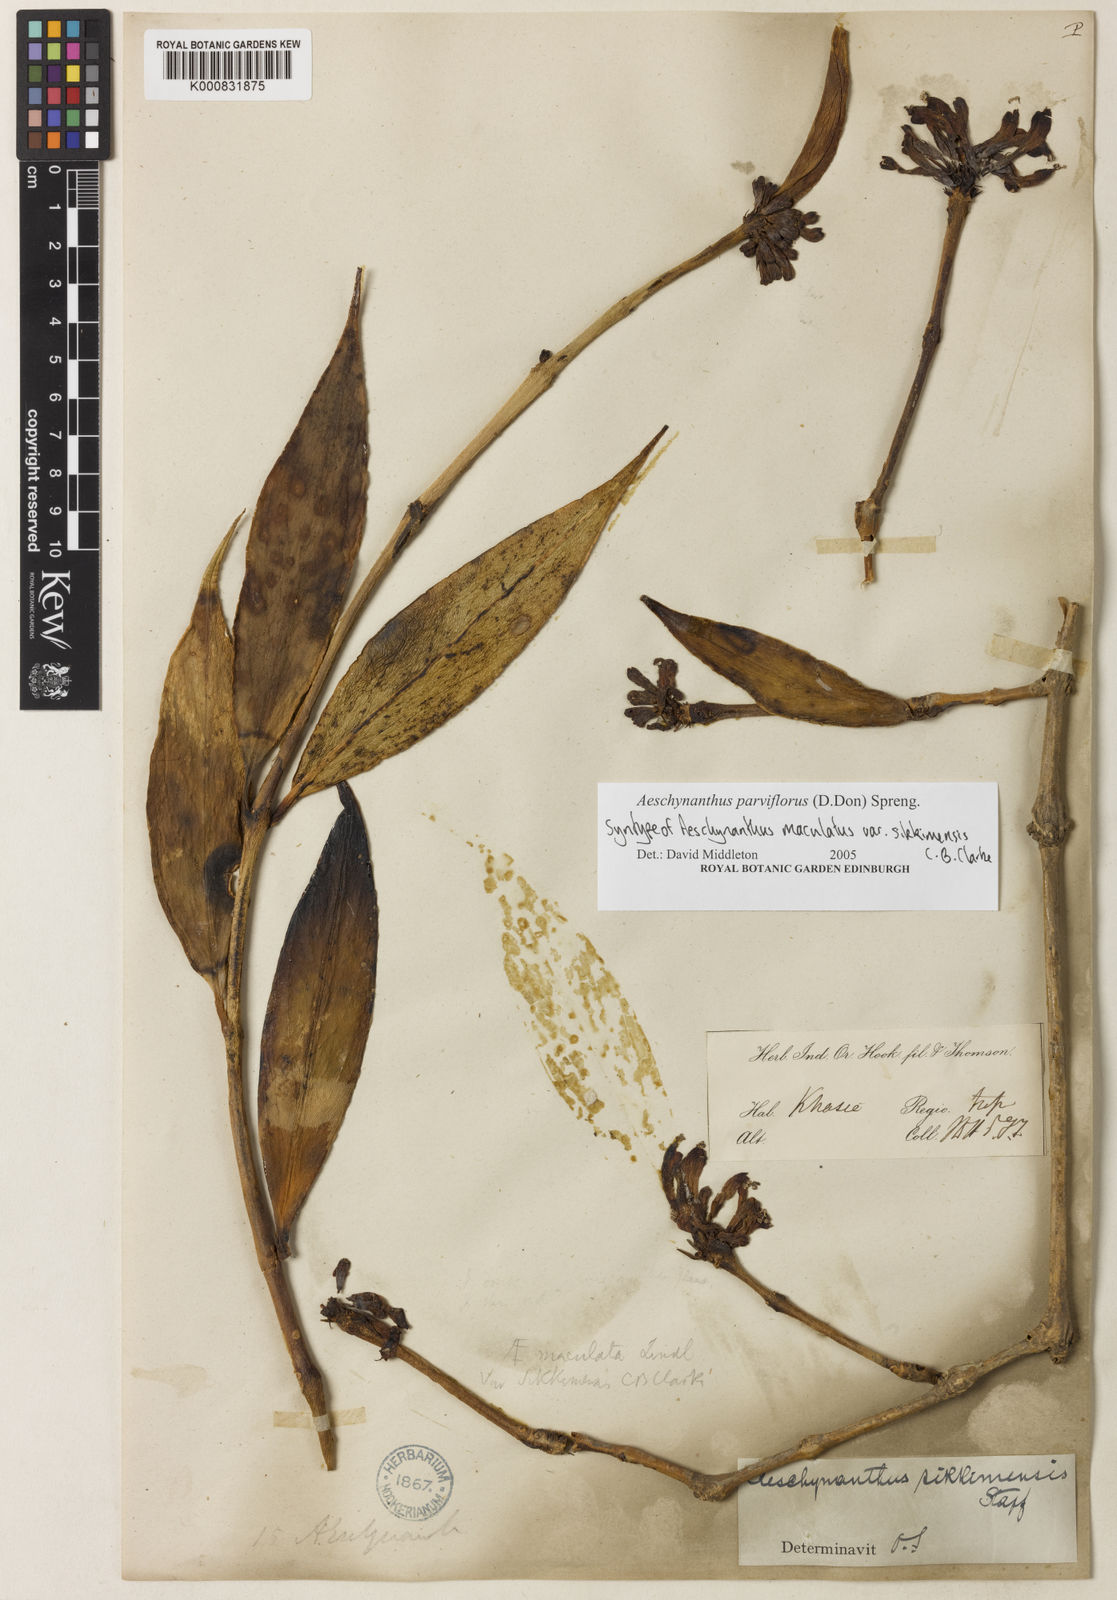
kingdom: Plantae
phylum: Tracheophyta
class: Magnoliopsida
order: Lamiales
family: Gesneriaceae
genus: Aeschynanthus
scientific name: Aeschynanthus parviflorus
